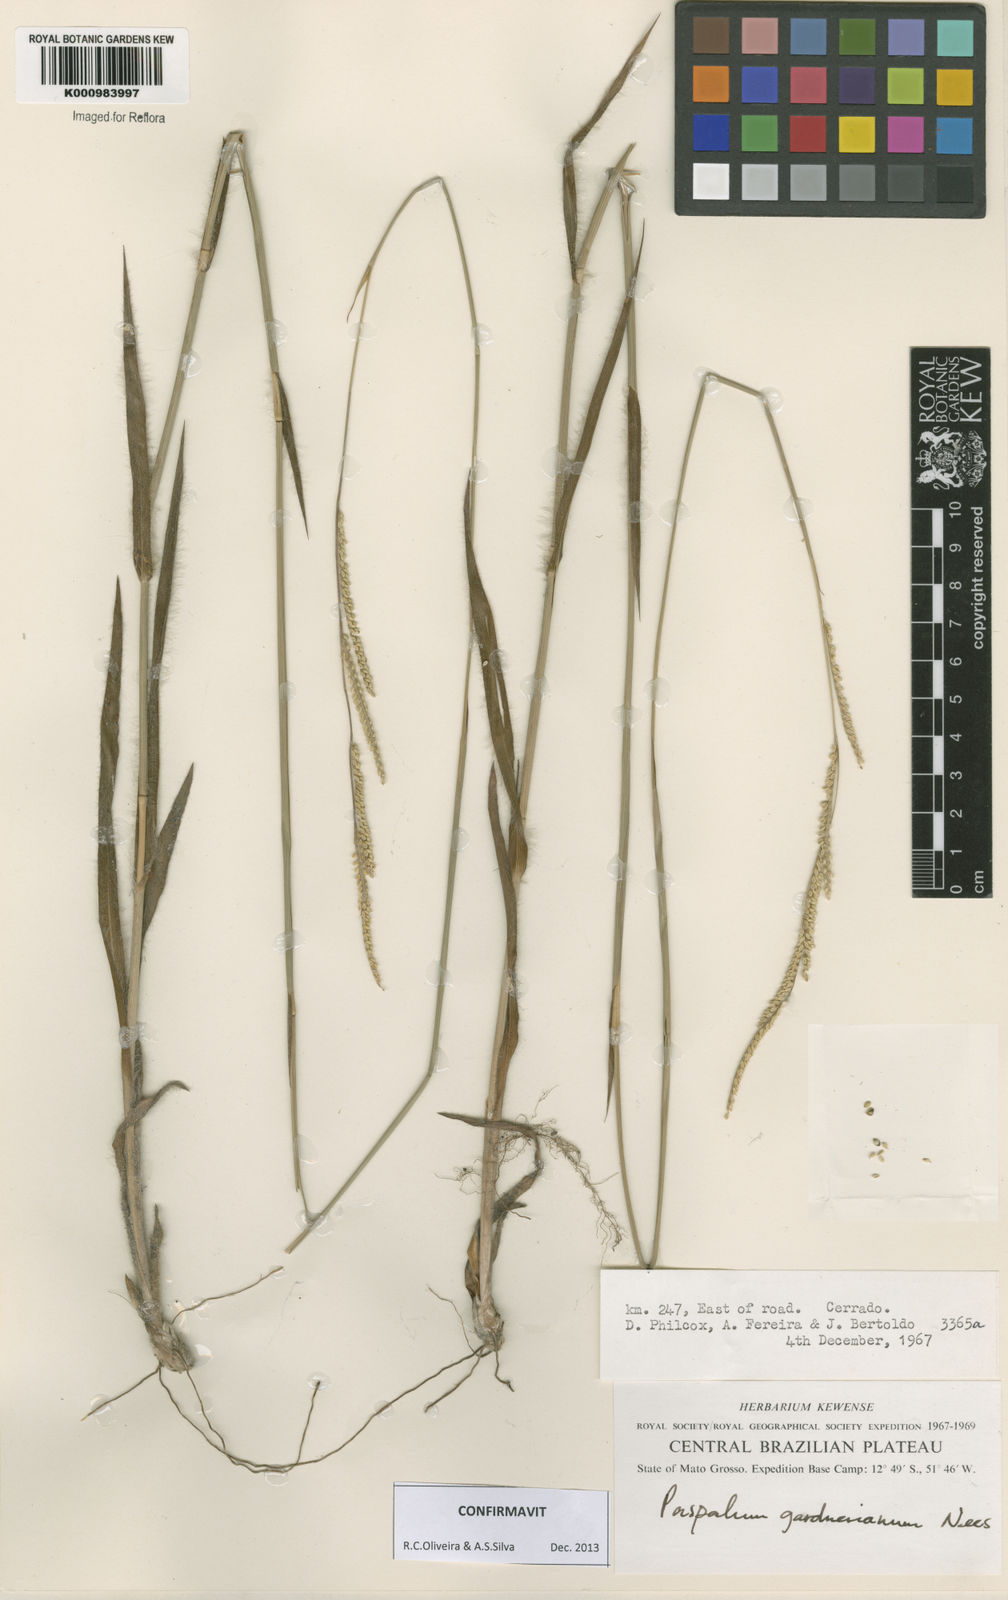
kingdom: Plantae
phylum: Tracheophyta
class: Liliopsida
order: Poales
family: Poaceae
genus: Paspalum
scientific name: Paspalum gardnerianum
